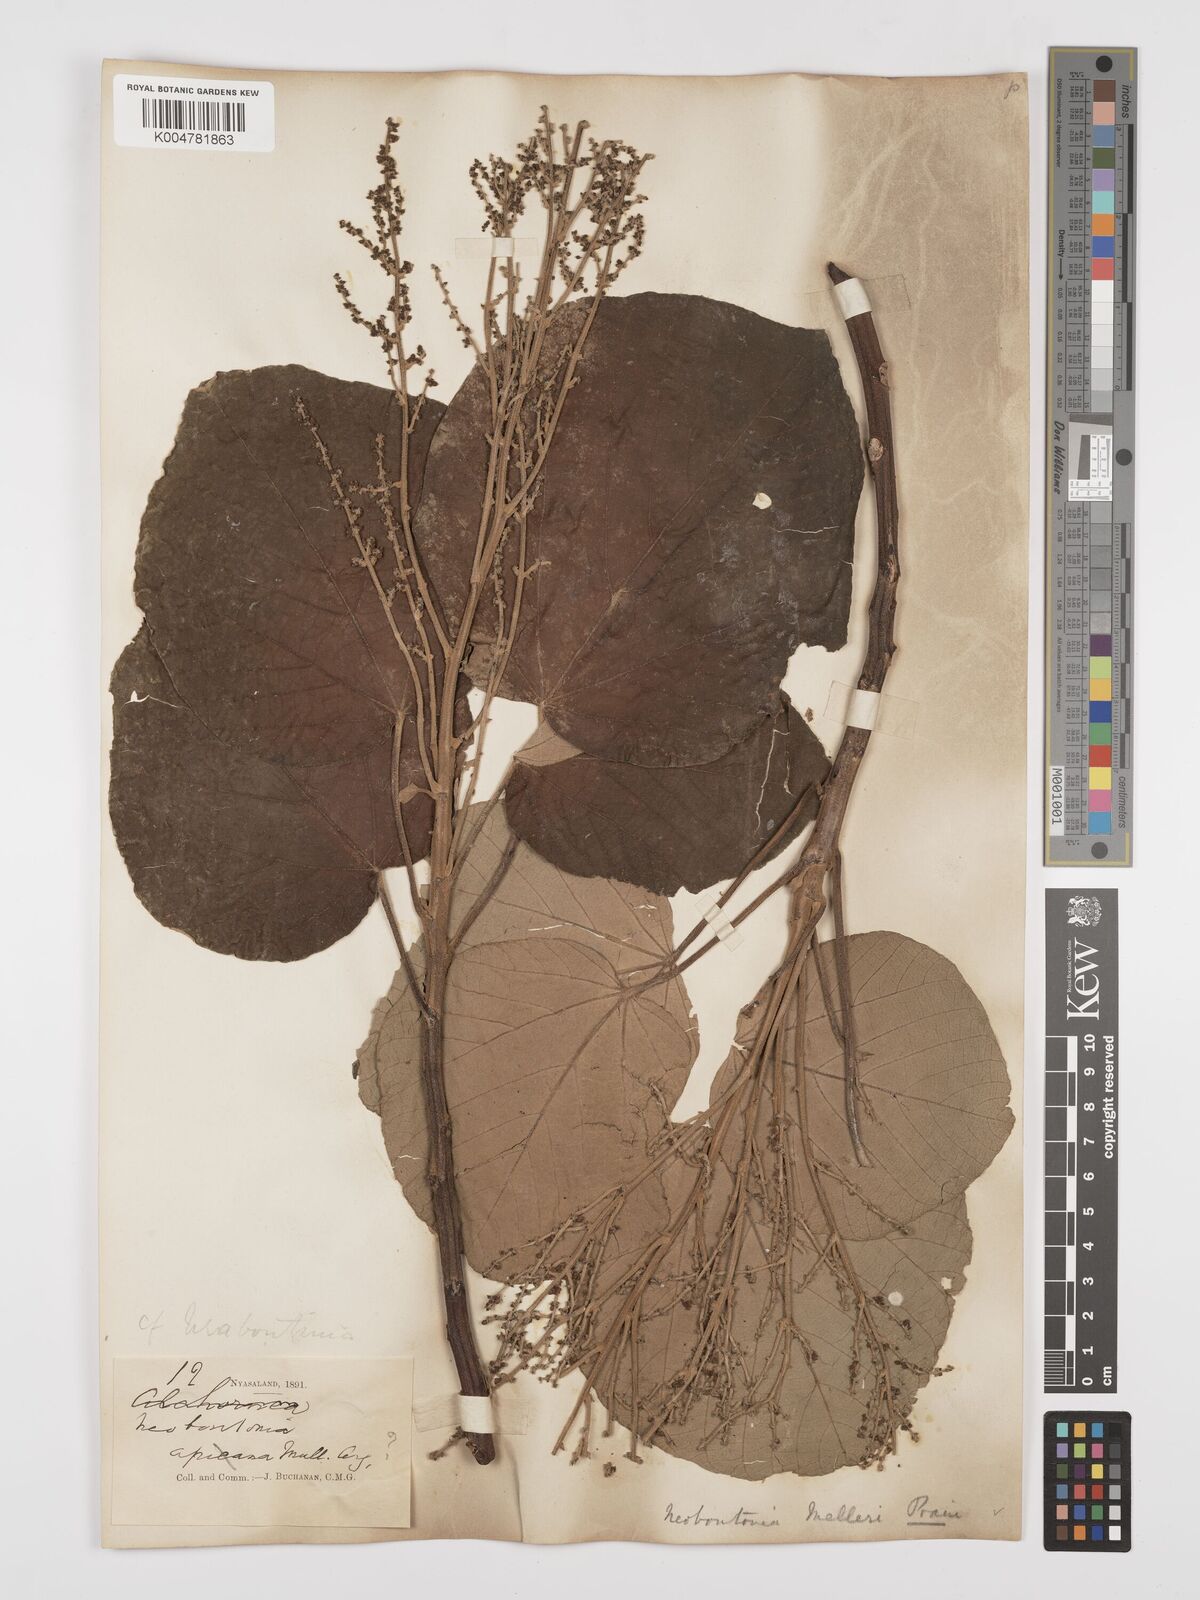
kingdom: Plantae
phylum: Tracheophyta
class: Magnoliopsida
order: Malpighiales
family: Euphorbiaceae
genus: Neoboutonia
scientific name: Neoboutonia melleri
